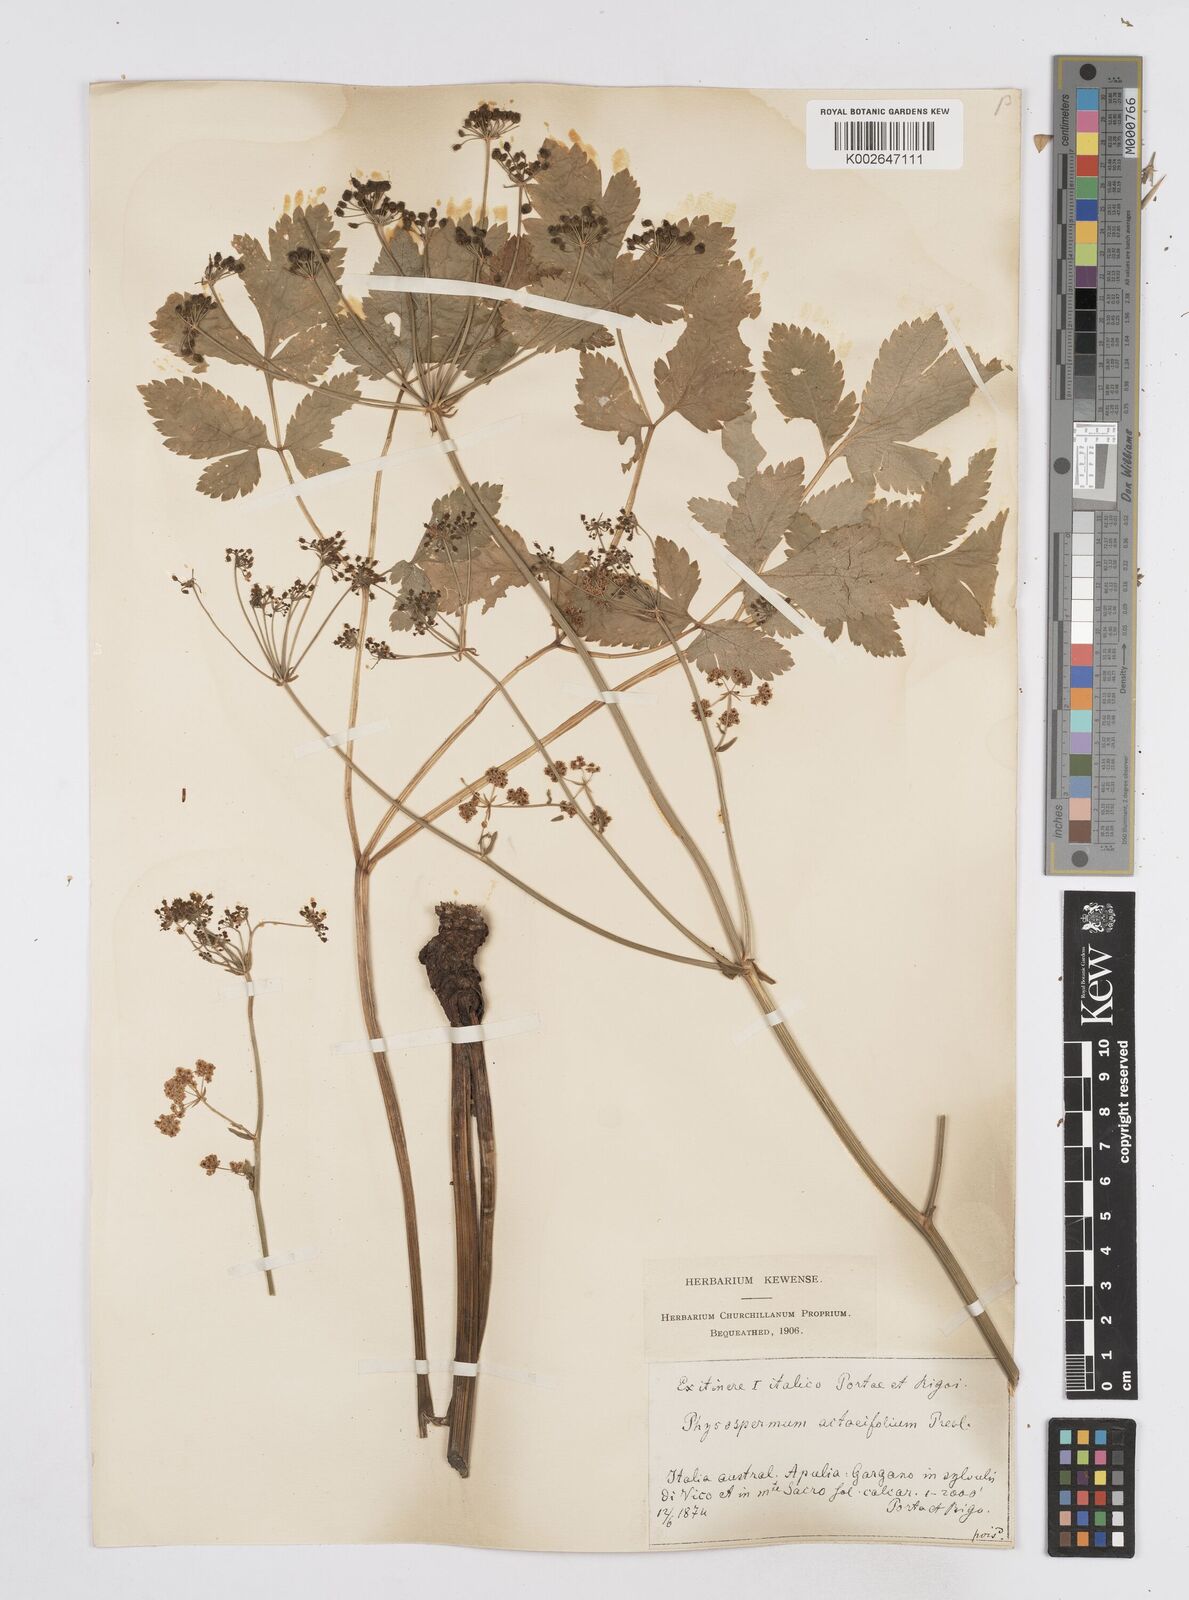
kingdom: Plantae
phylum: Tracheophyta
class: Magnoliopsida
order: Apiales
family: Apiaceae
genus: Physospermum
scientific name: Physospermum verticillatum
